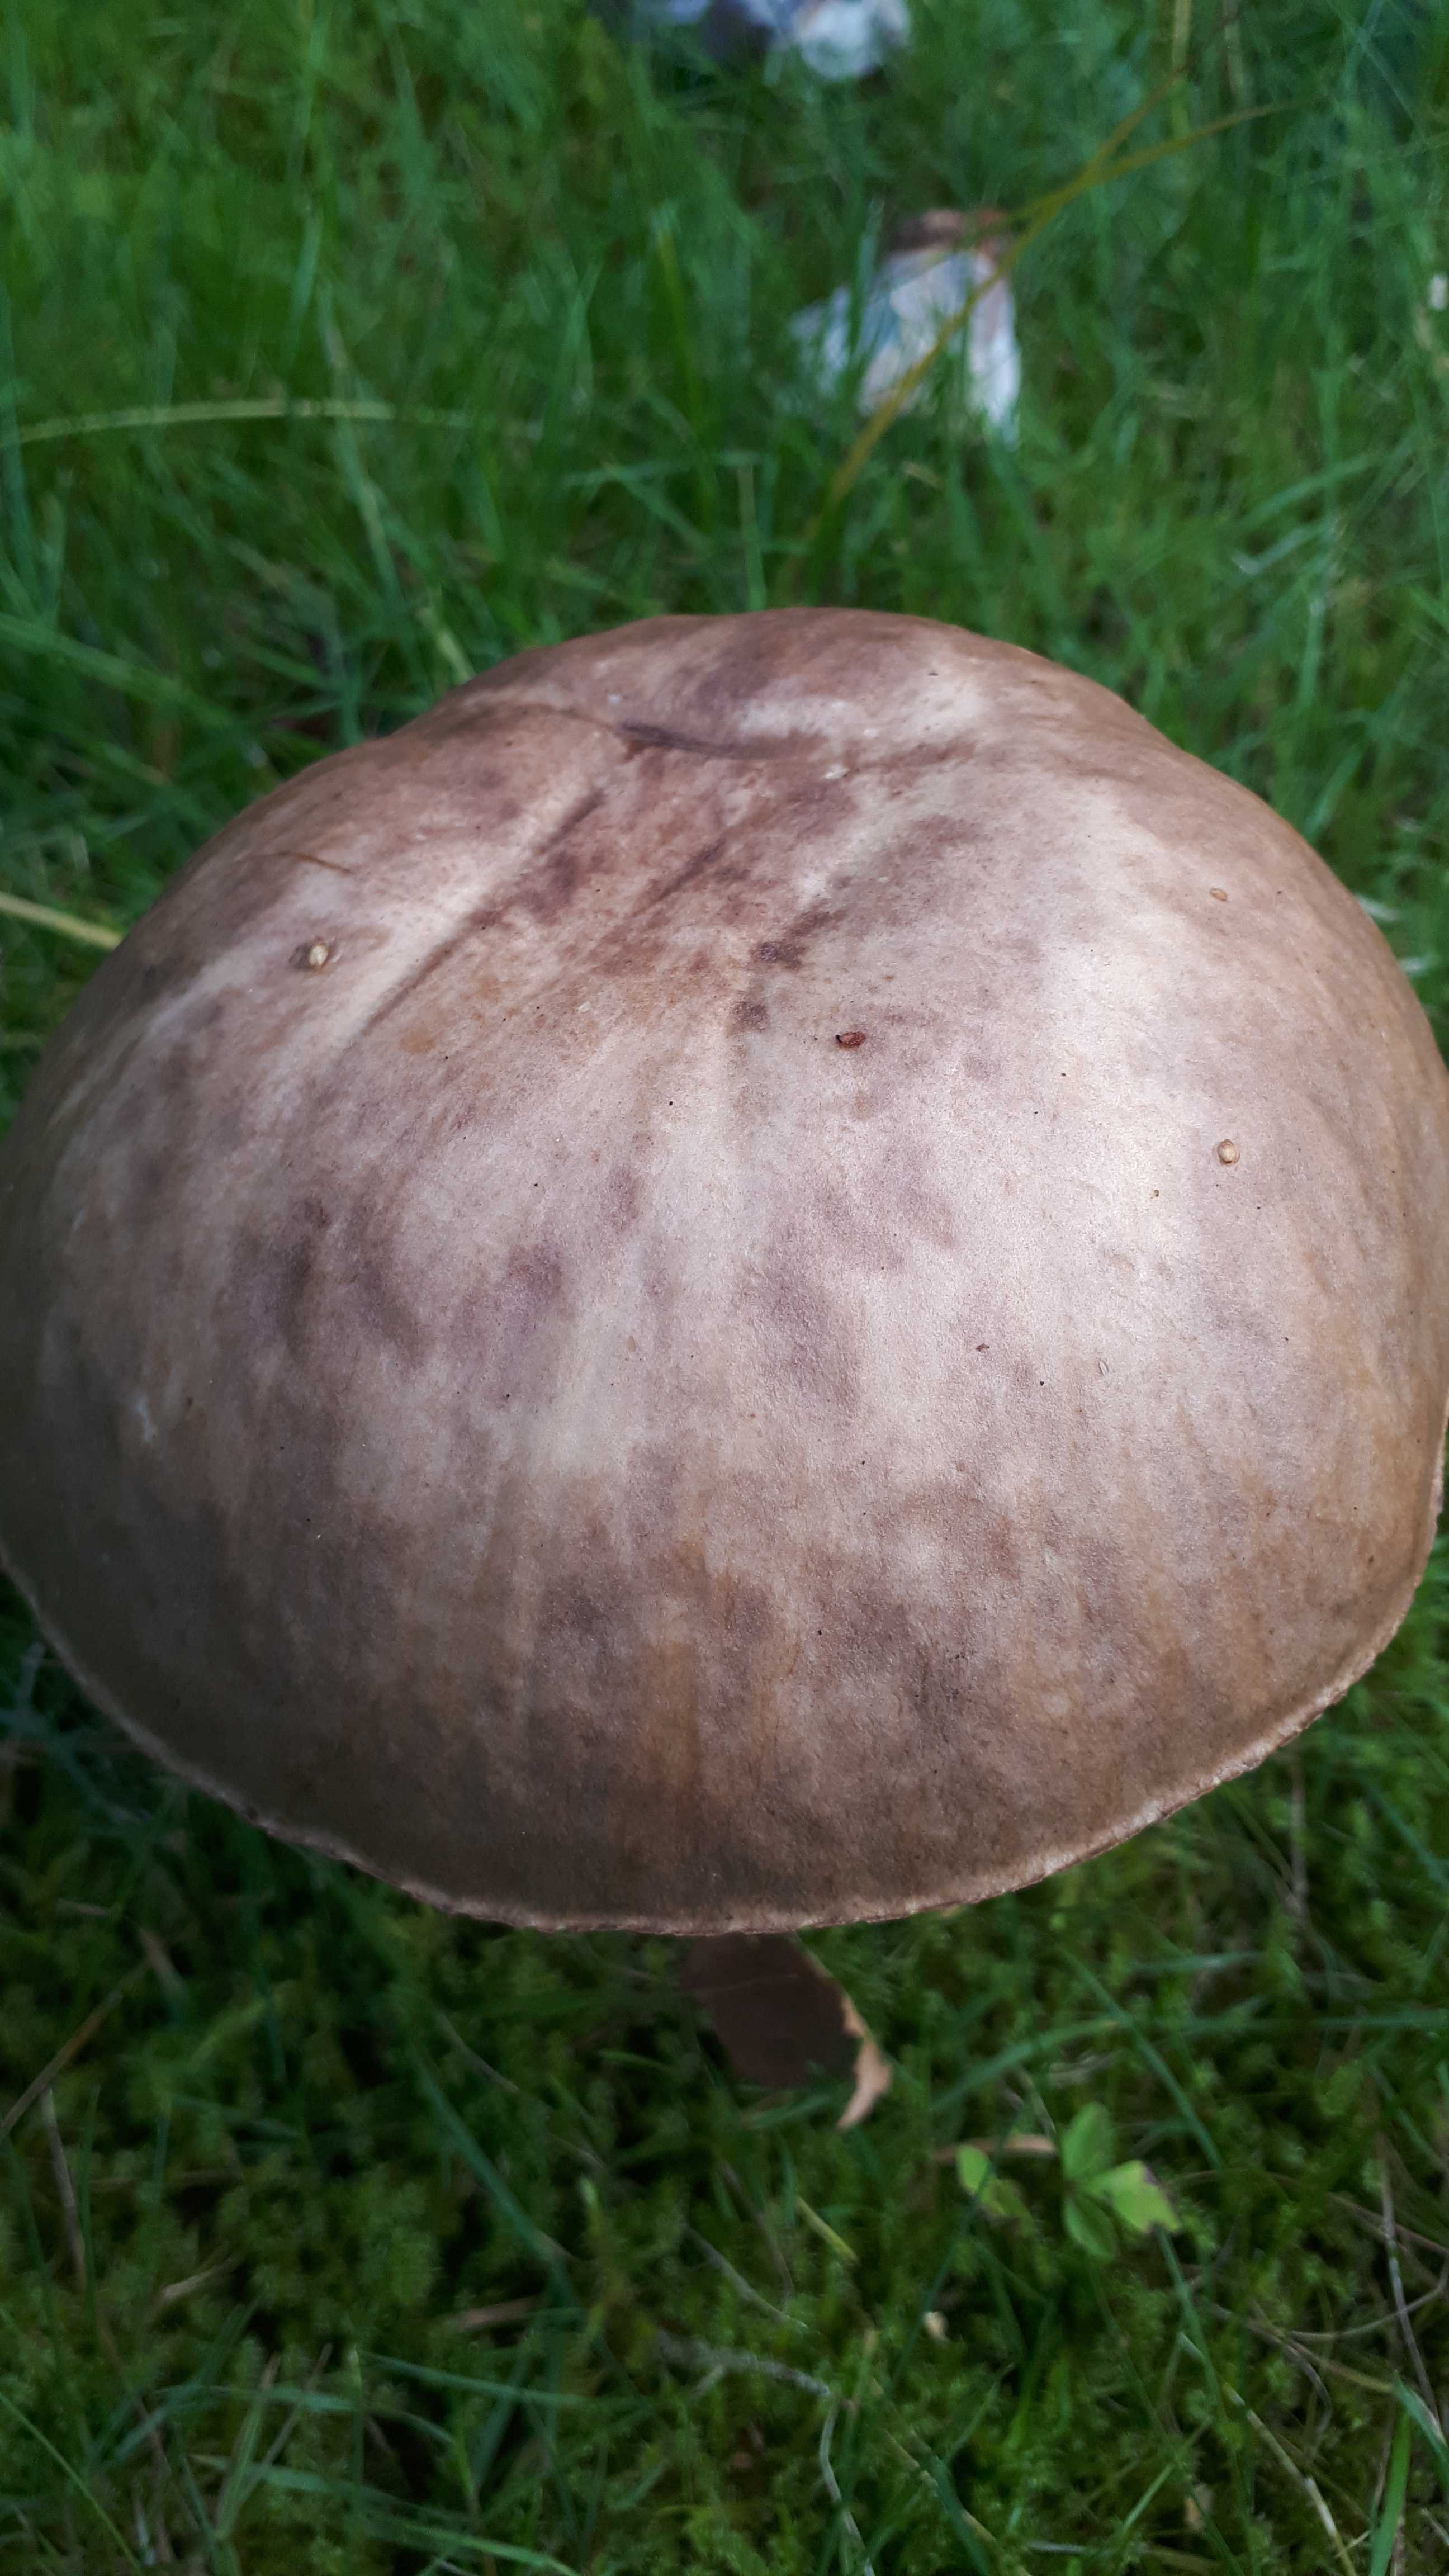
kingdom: Fungi
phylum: Basidiomycota
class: Agaricomycetes
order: Boletales
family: Boletaceae
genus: Leccinum
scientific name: Leccinum
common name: skælrørhat
